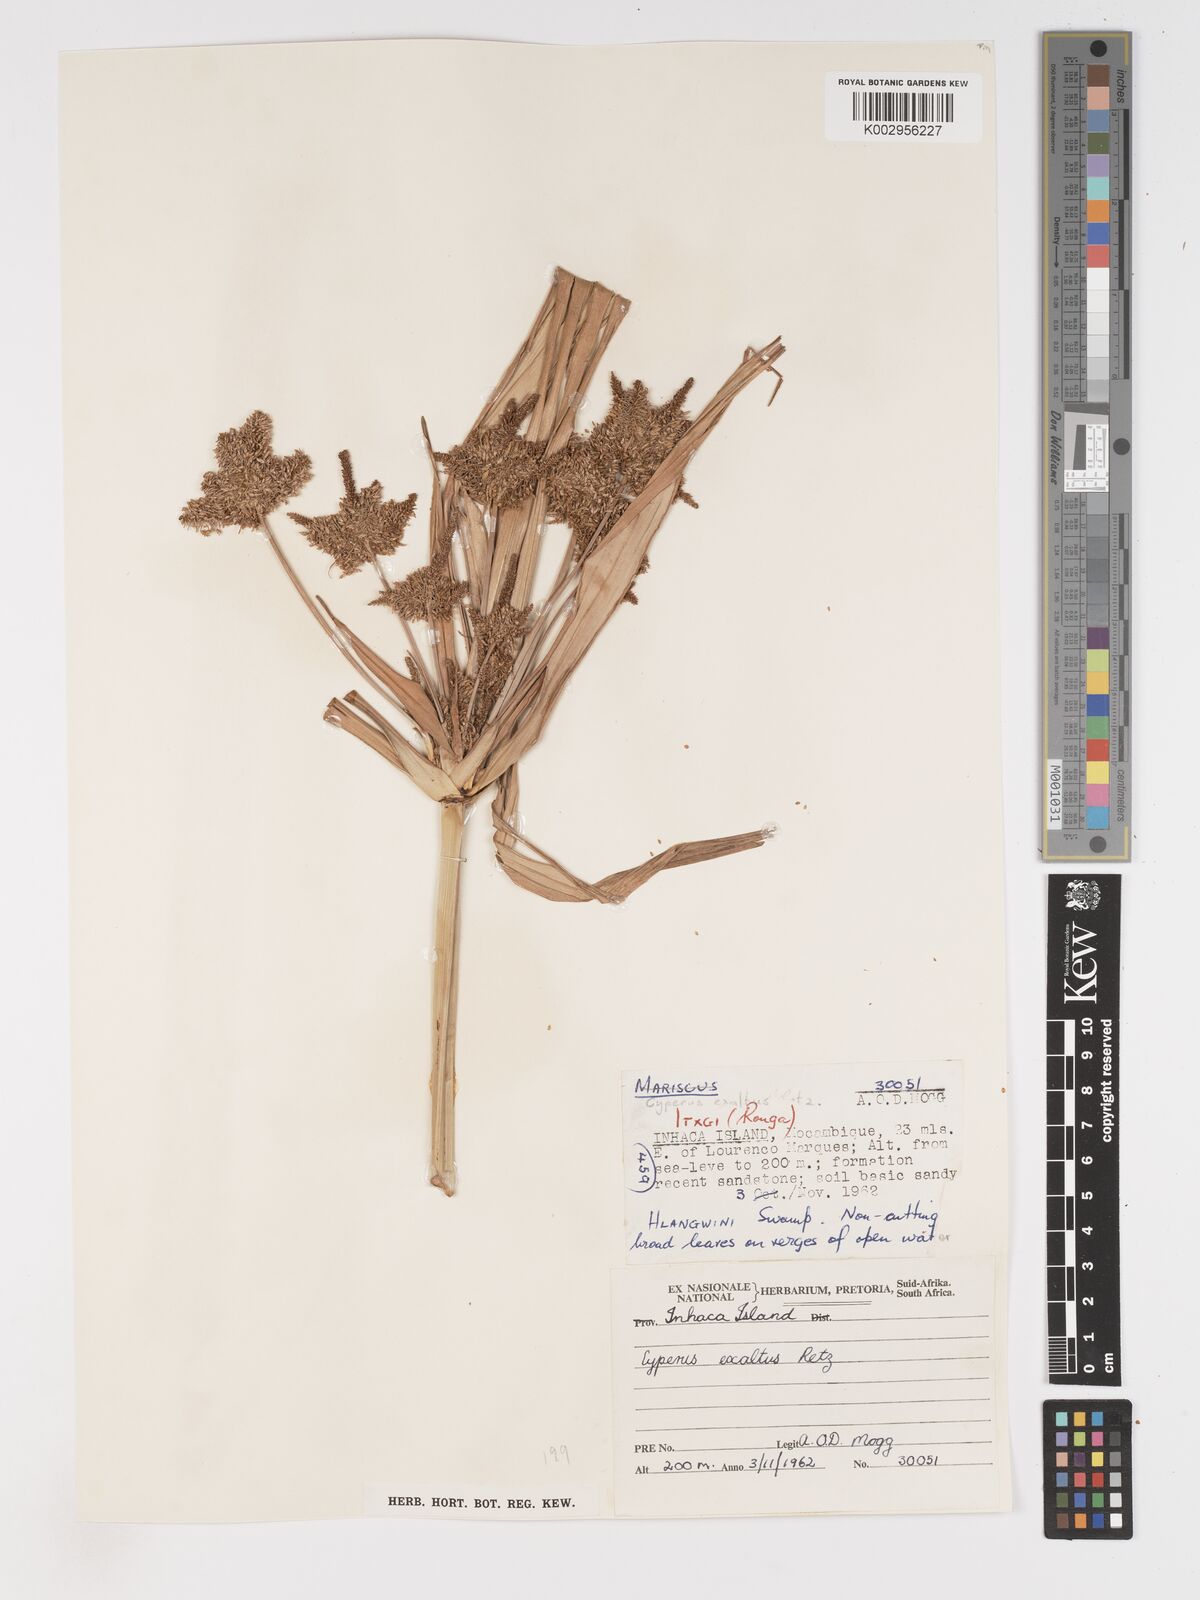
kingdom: Plantae
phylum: Tracheophyta
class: Liliopsida
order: Poales
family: Cyperaceae
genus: Cyperus
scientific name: Cyperus dives
